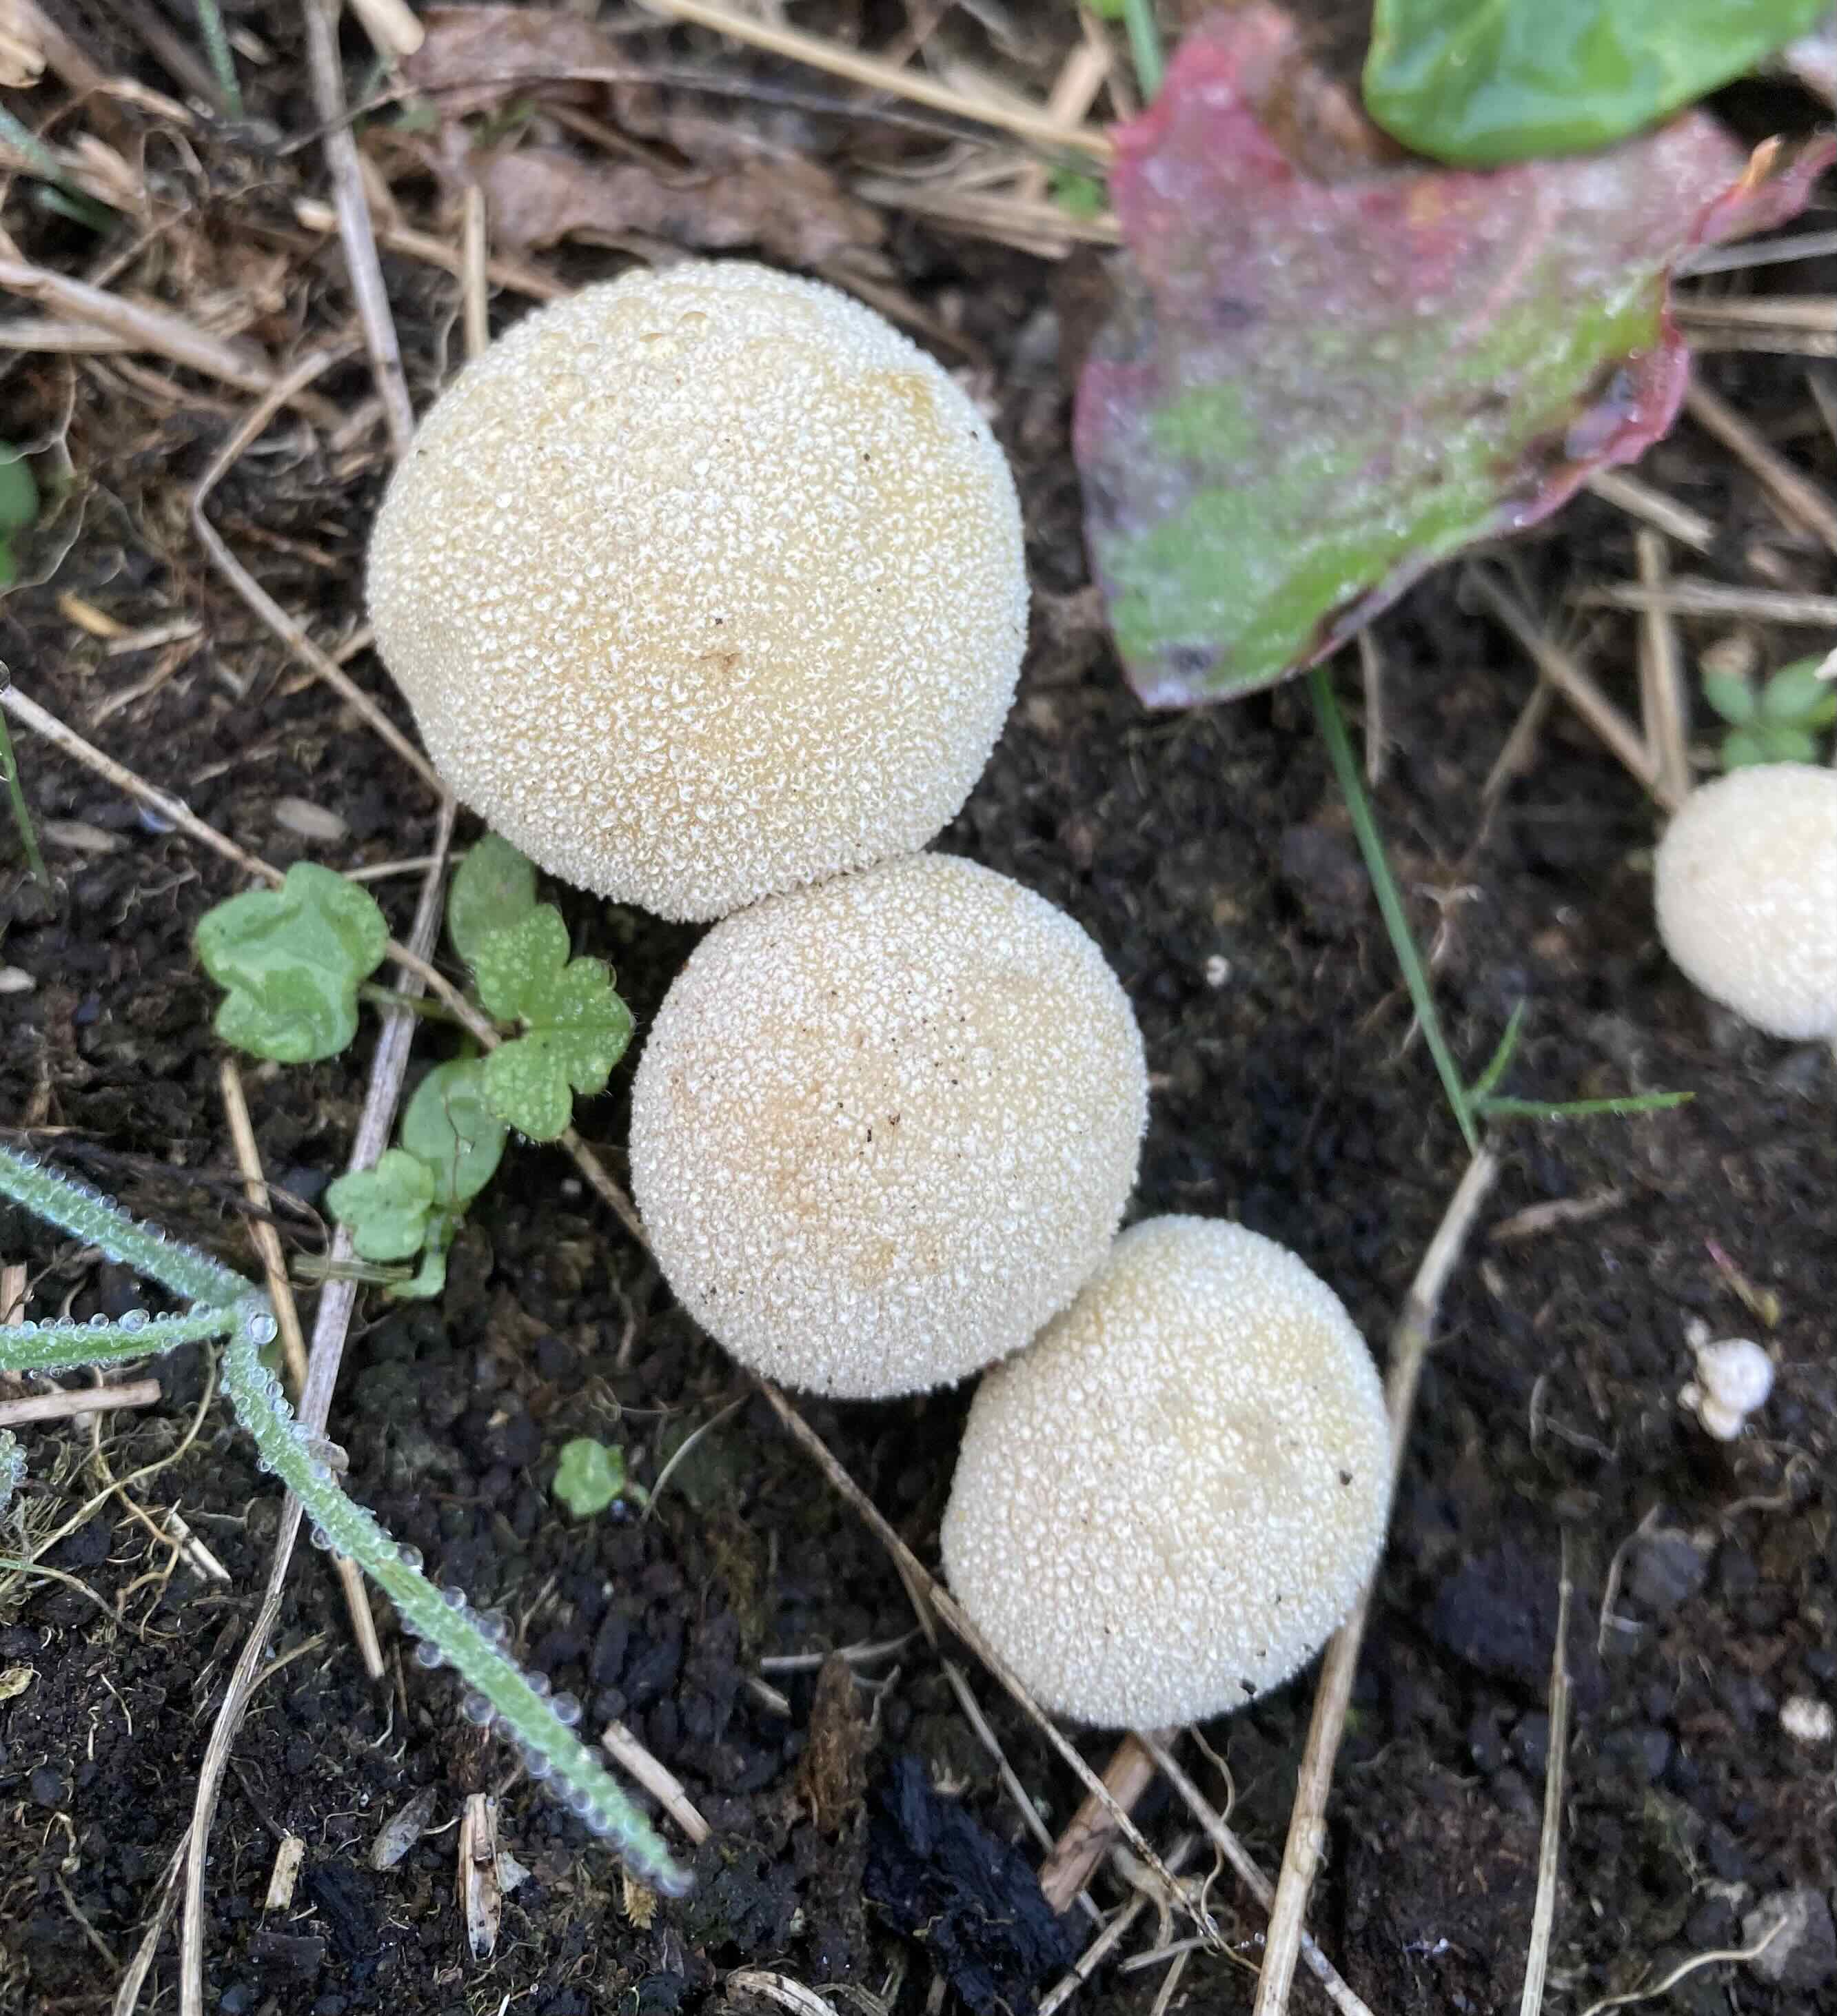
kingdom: Fungi
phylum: Basidiomycota
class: Agaricomycetes
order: Agaricales
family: Lycoperdaceae
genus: Lycoperdon
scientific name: Lycoperdon pratense
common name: flad støvbold
